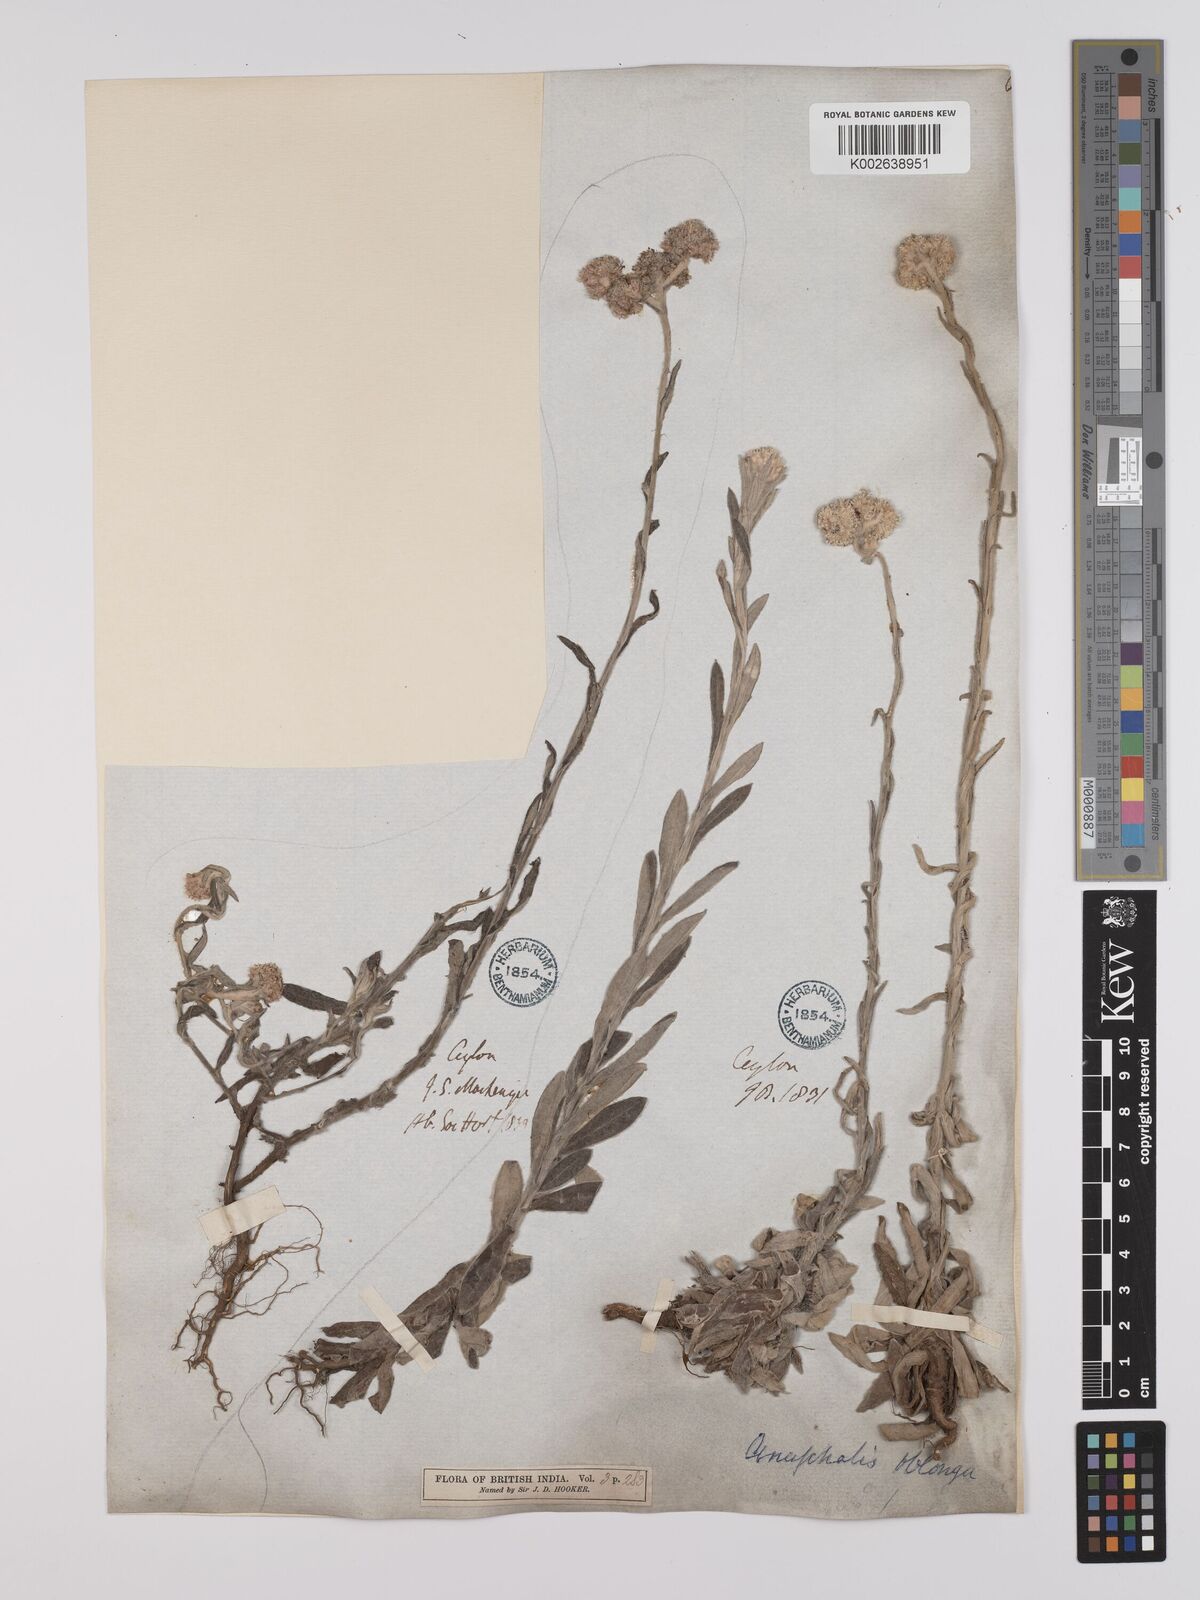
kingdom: Plantae
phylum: Tracheophyta
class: Magnoliopsida
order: Asterales
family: Asteraceae
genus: Anaphalis
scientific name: Anaphalis subdecurrens
